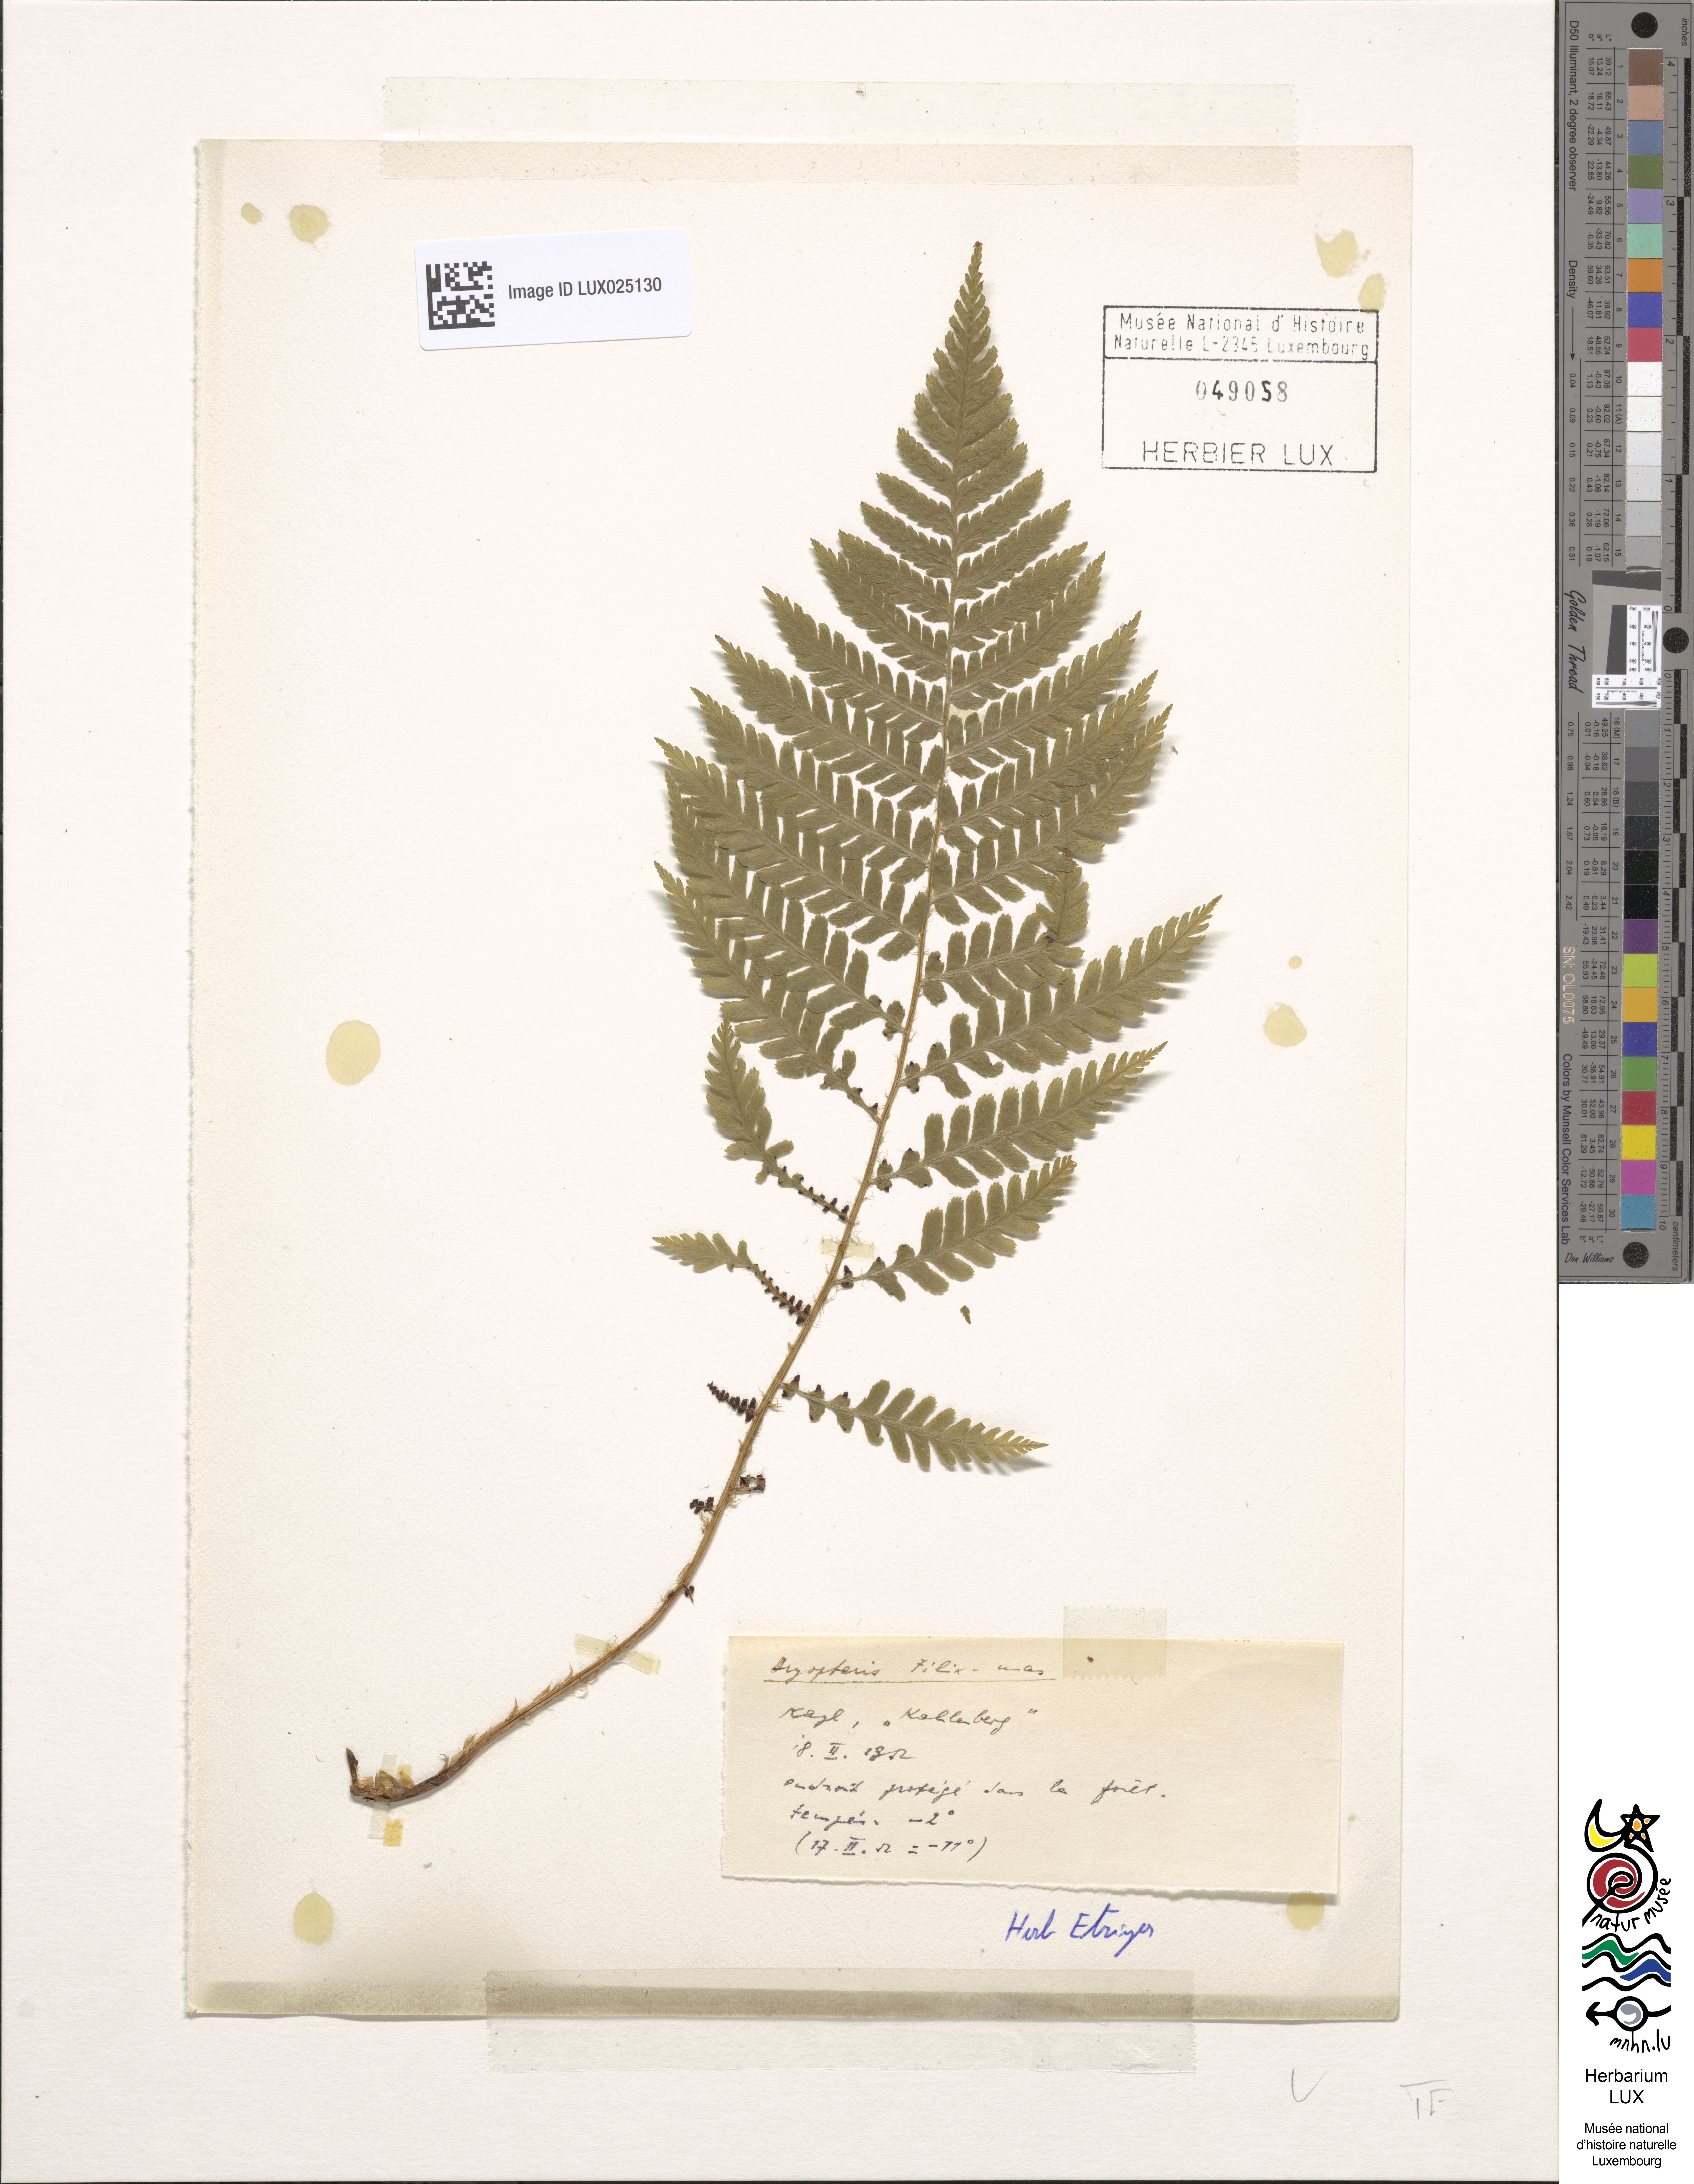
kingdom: Plantae
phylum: Tracheophyta
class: Polypodiopsida
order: Polypodiales
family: Dryopteridaceae
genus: Dryopteris
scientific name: Dryopteris filix-mas
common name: Male fern
